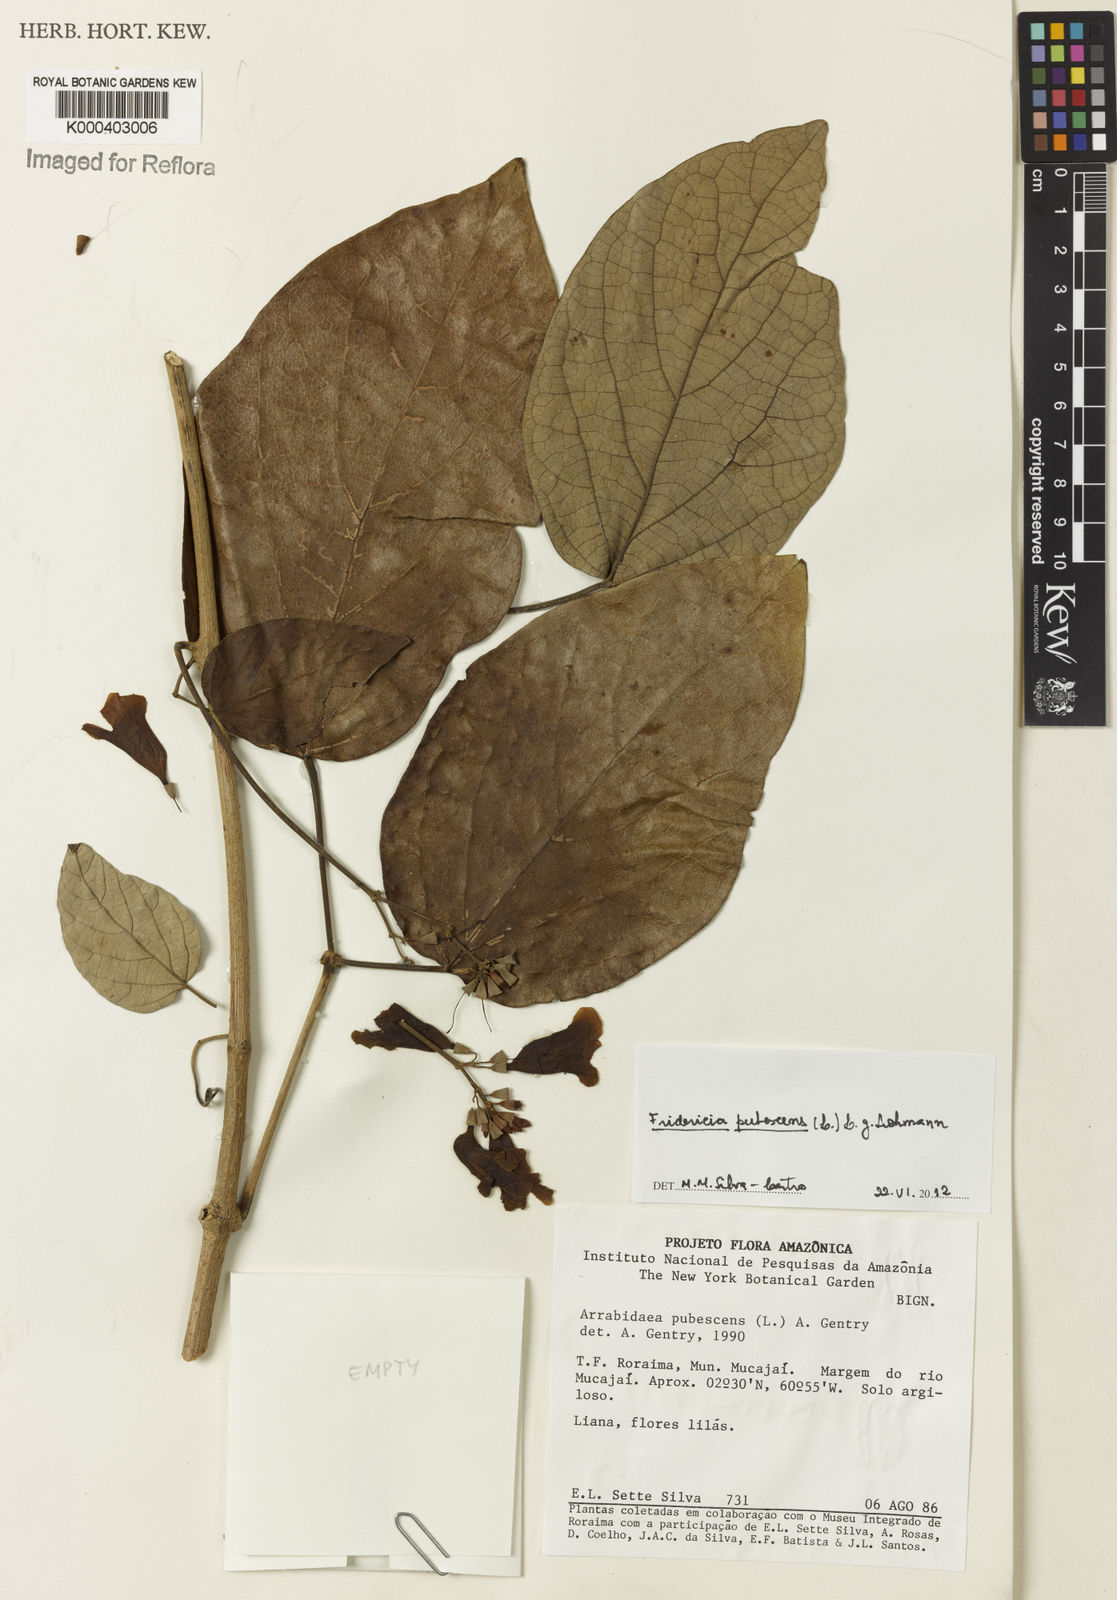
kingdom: Plantae
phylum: Tracheophyta
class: Magnoliopsida
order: Lamiales
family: Bignoniaceae
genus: Fridericia
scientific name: Fridericia pubescens
